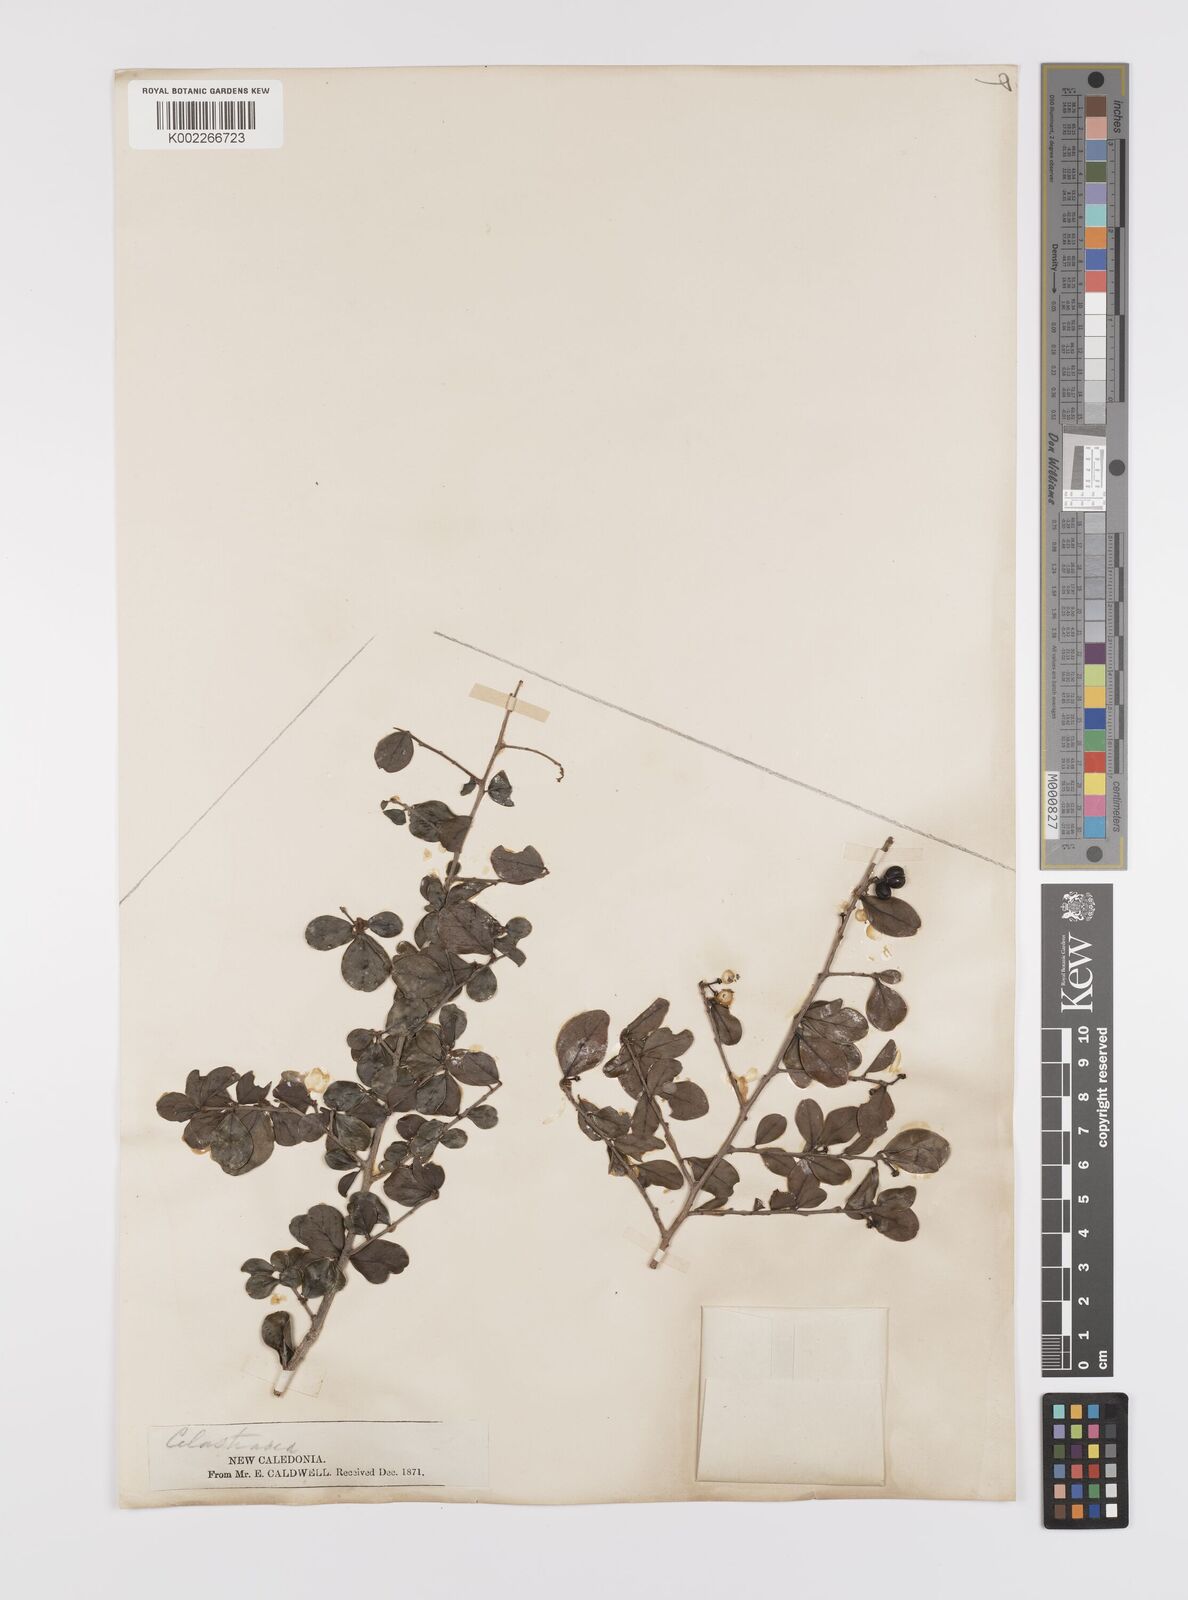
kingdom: Plantae
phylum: Tracheophyta
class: Magnoliopsida
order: Celastrales
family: Celastraceae
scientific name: Celastraceae
